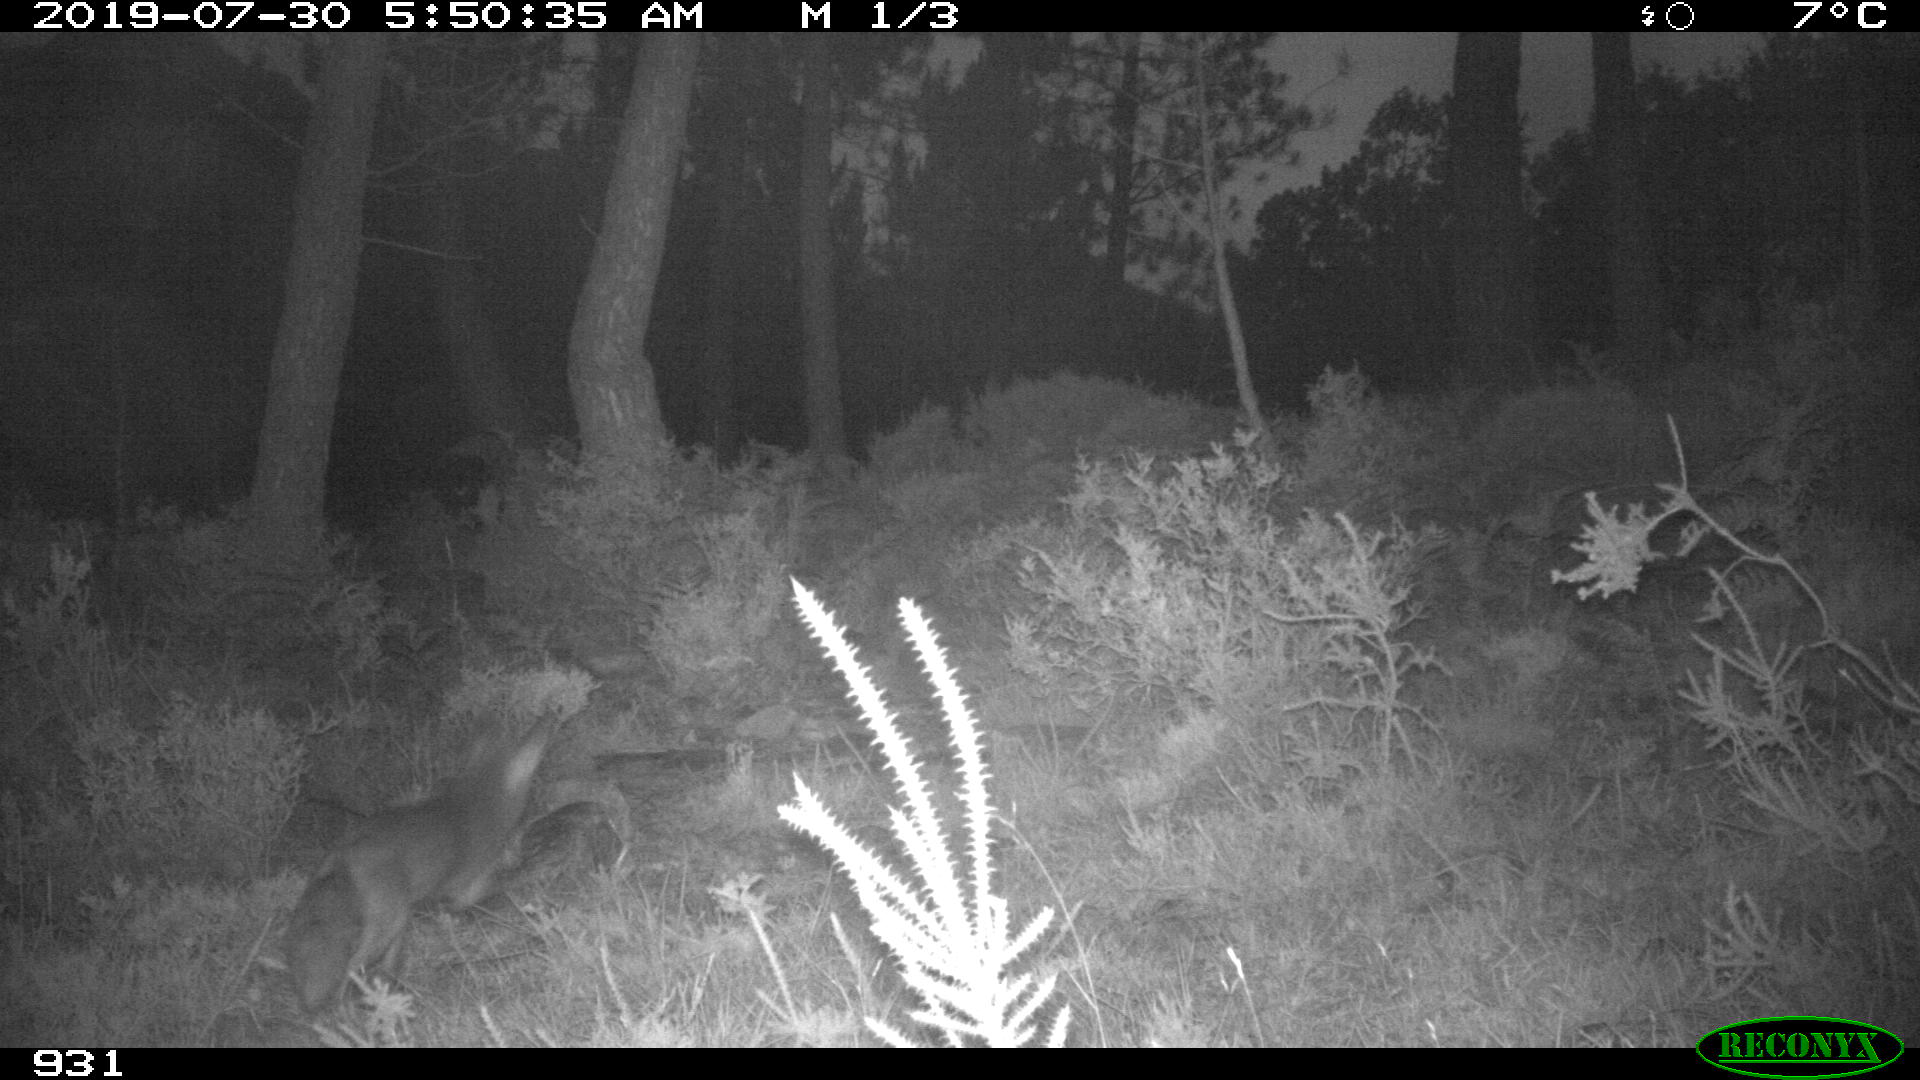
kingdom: Animalia
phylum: Chordata
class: Mammalia
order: Carnivora
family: Canidae
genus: Vulpes
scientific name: Vulpes vulpes
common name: Red fox
